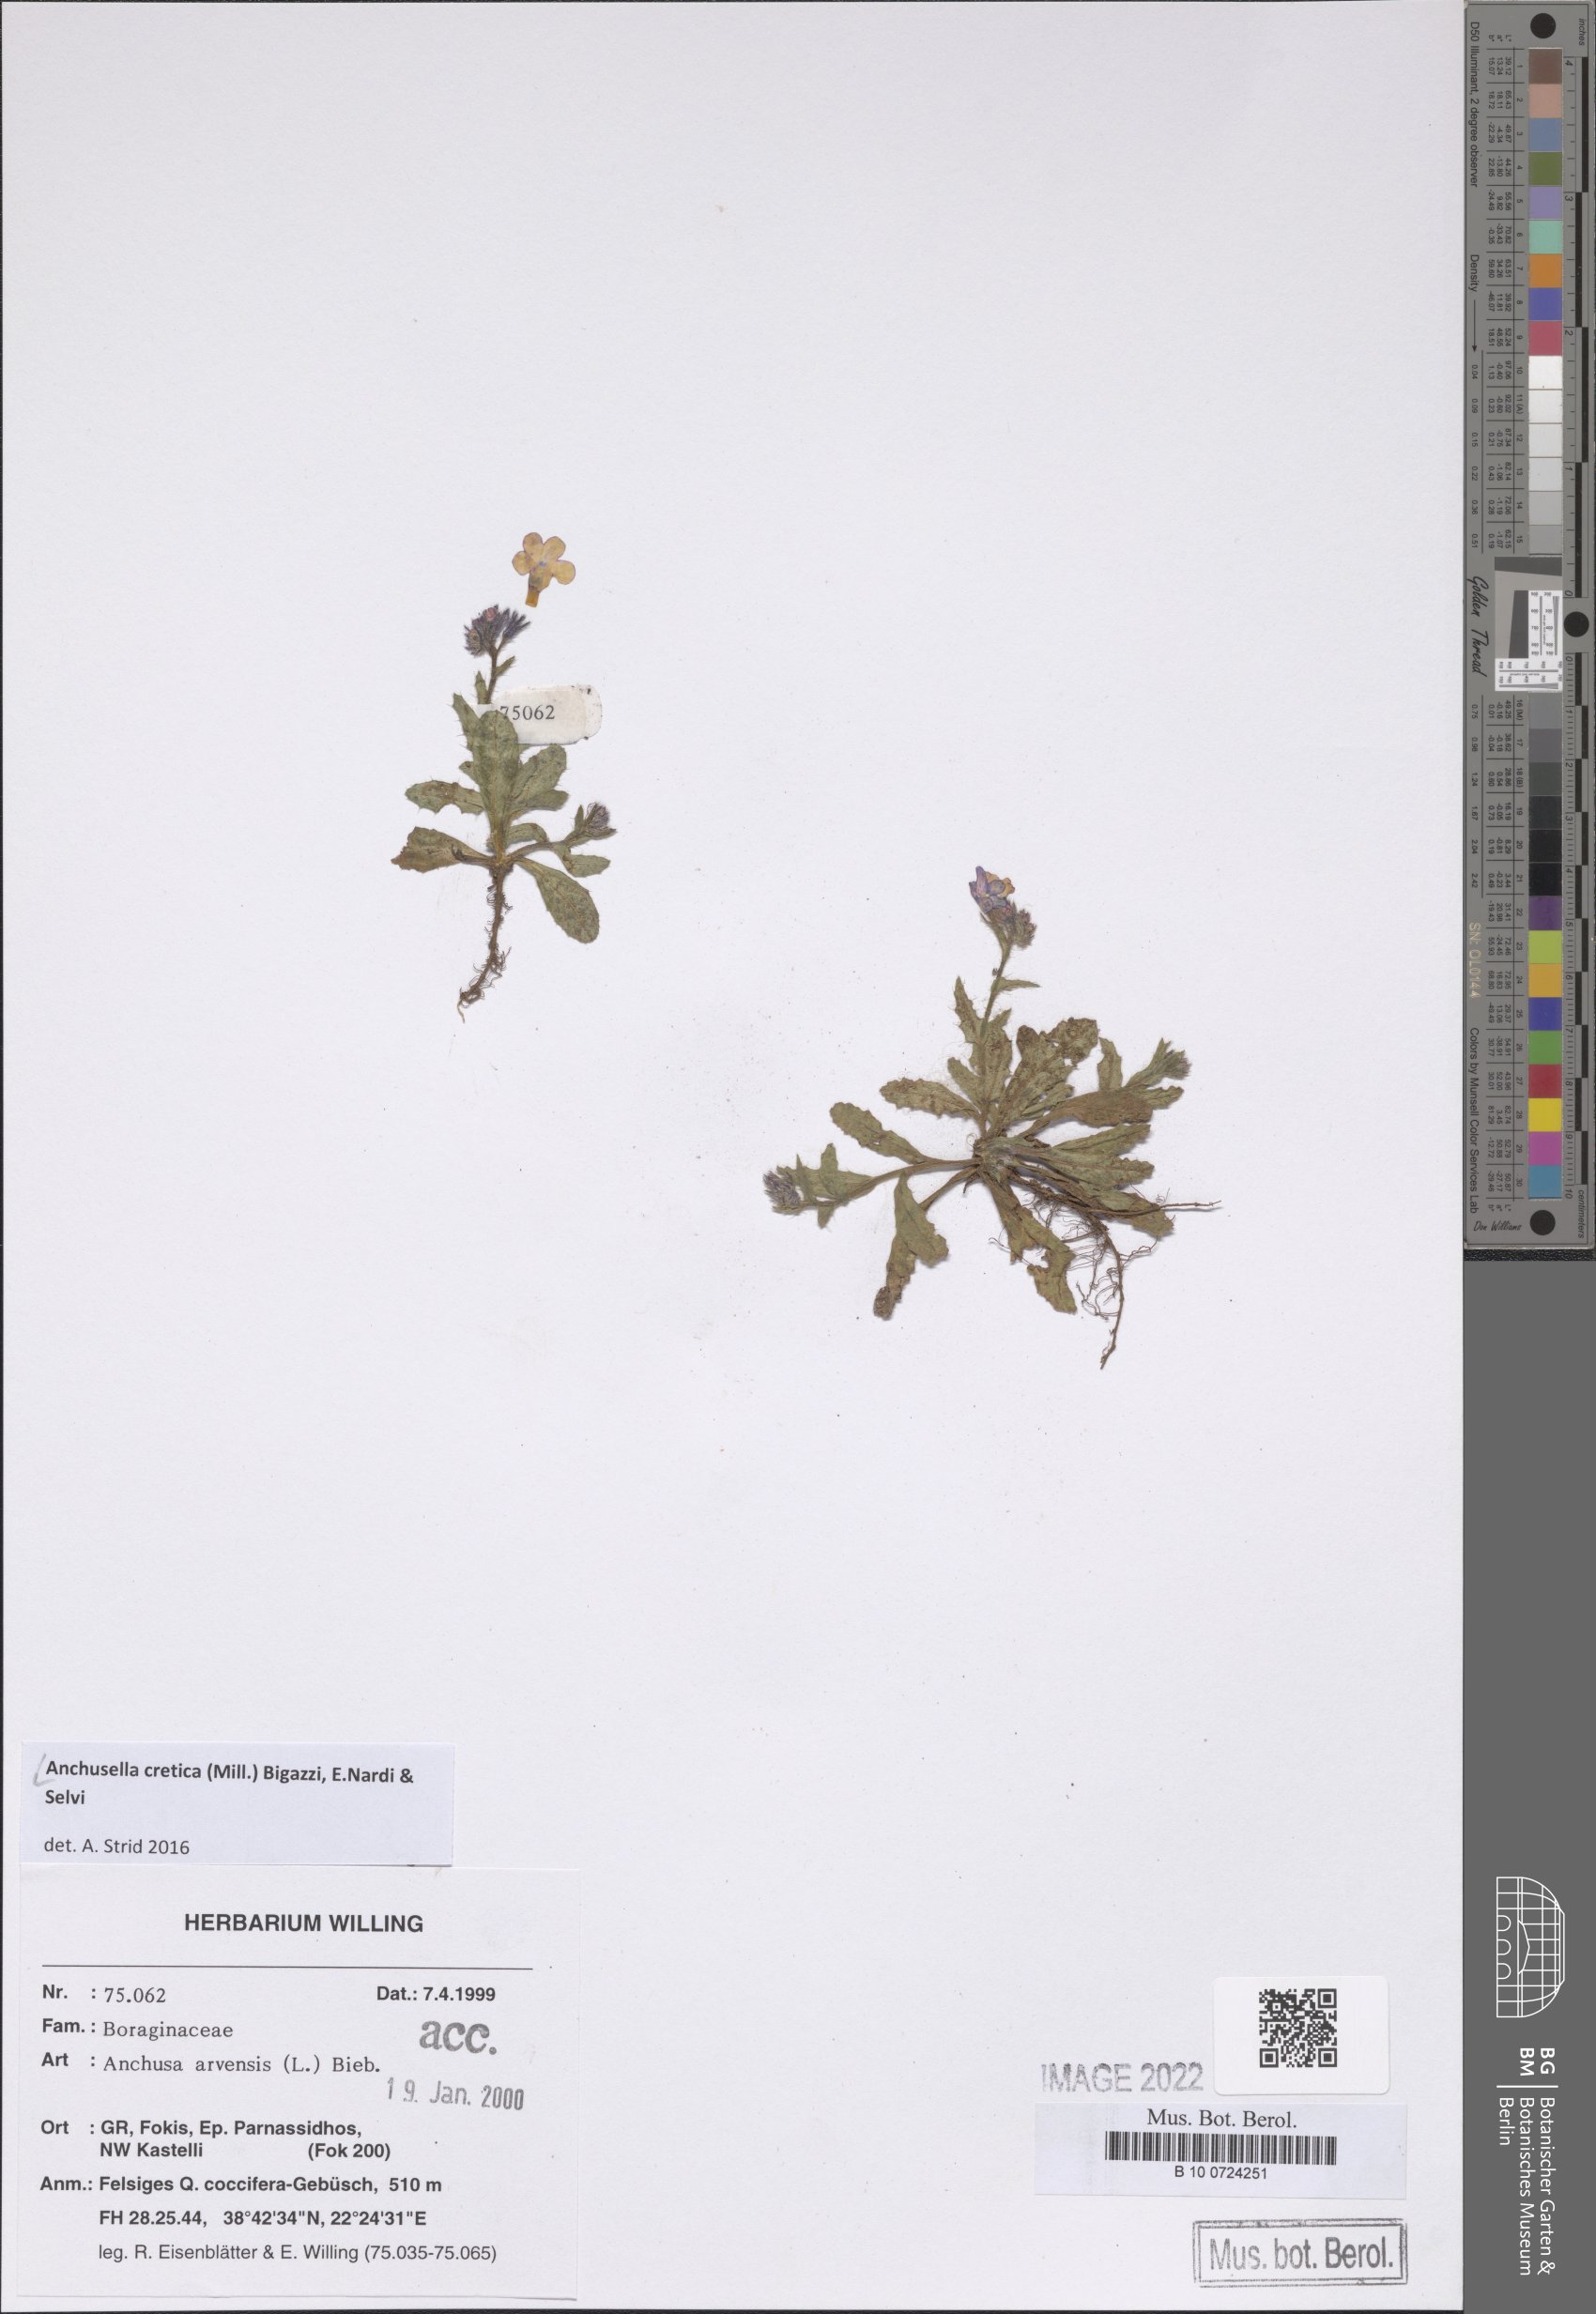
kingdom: Plantae
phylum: Tracheophyta
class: Magnoliopsida
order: Boraginales
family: Boraginaceae
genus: Anchusella
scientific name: Anchusella cretica
